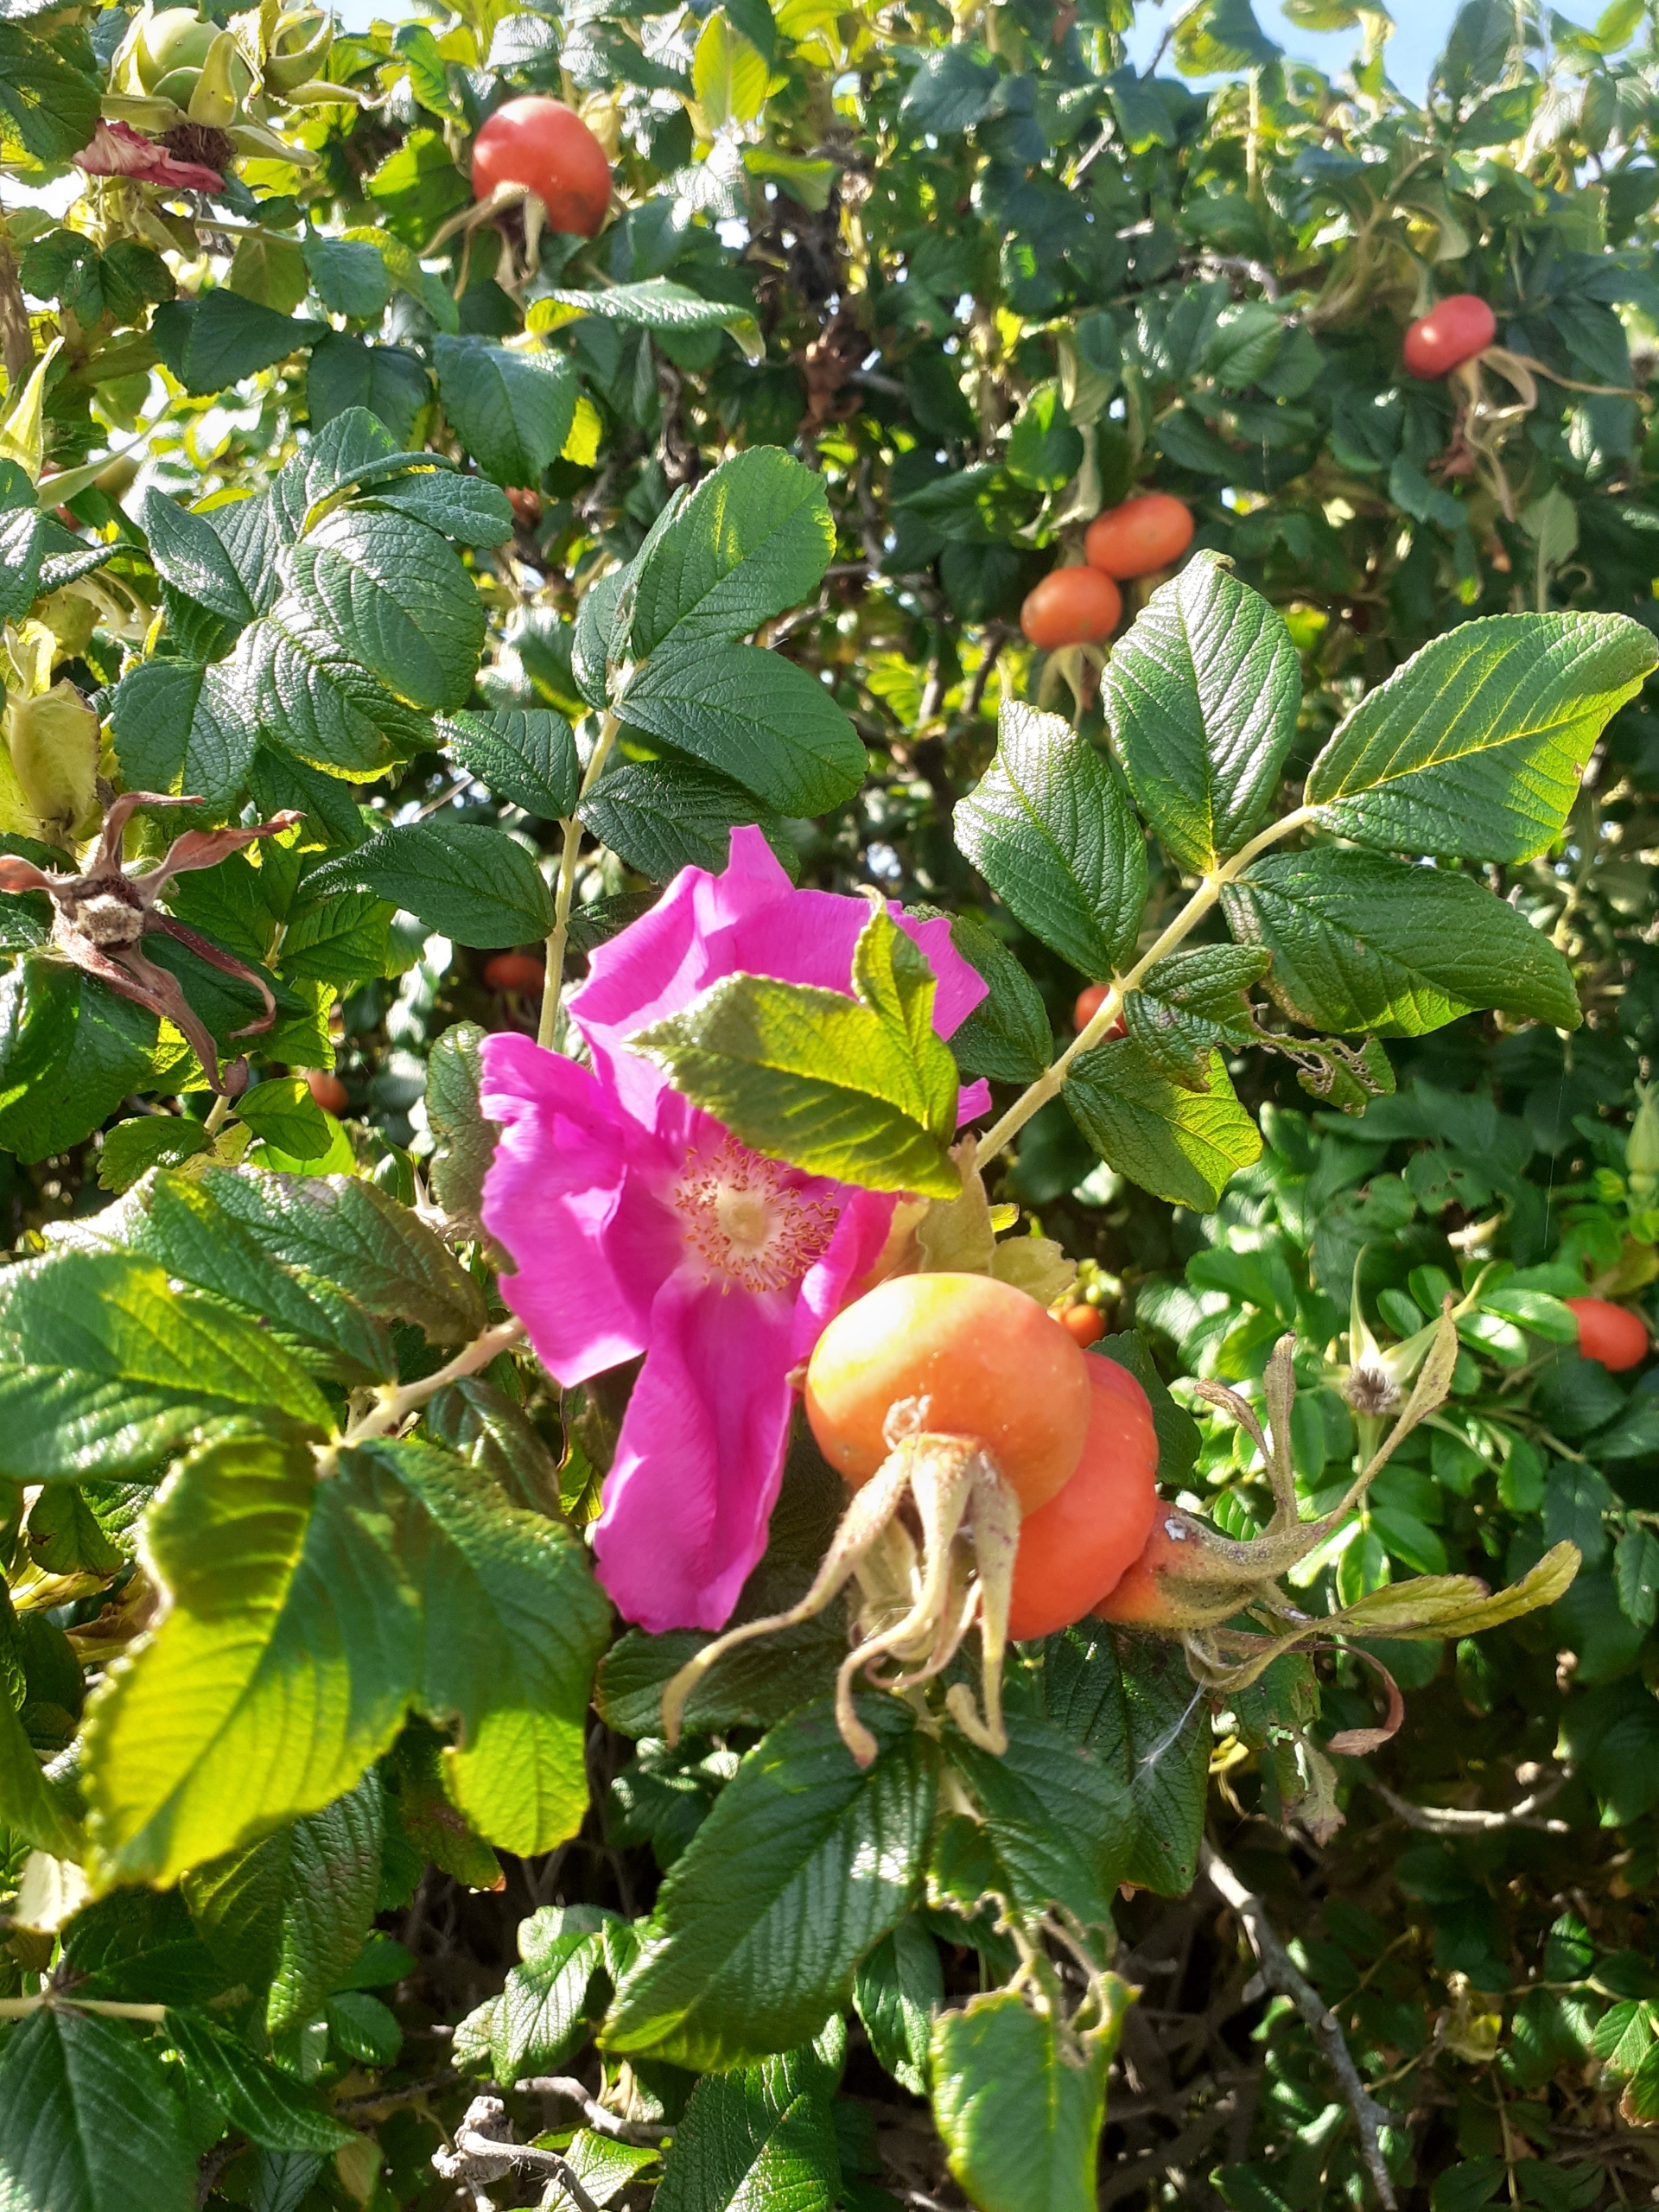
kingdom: Plantae
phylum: Tracheophyta
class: Magnoliopsida
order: Rosales
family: Rosaceae
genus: Rosa
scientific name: Rosa rugosa
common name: Rynket rose
